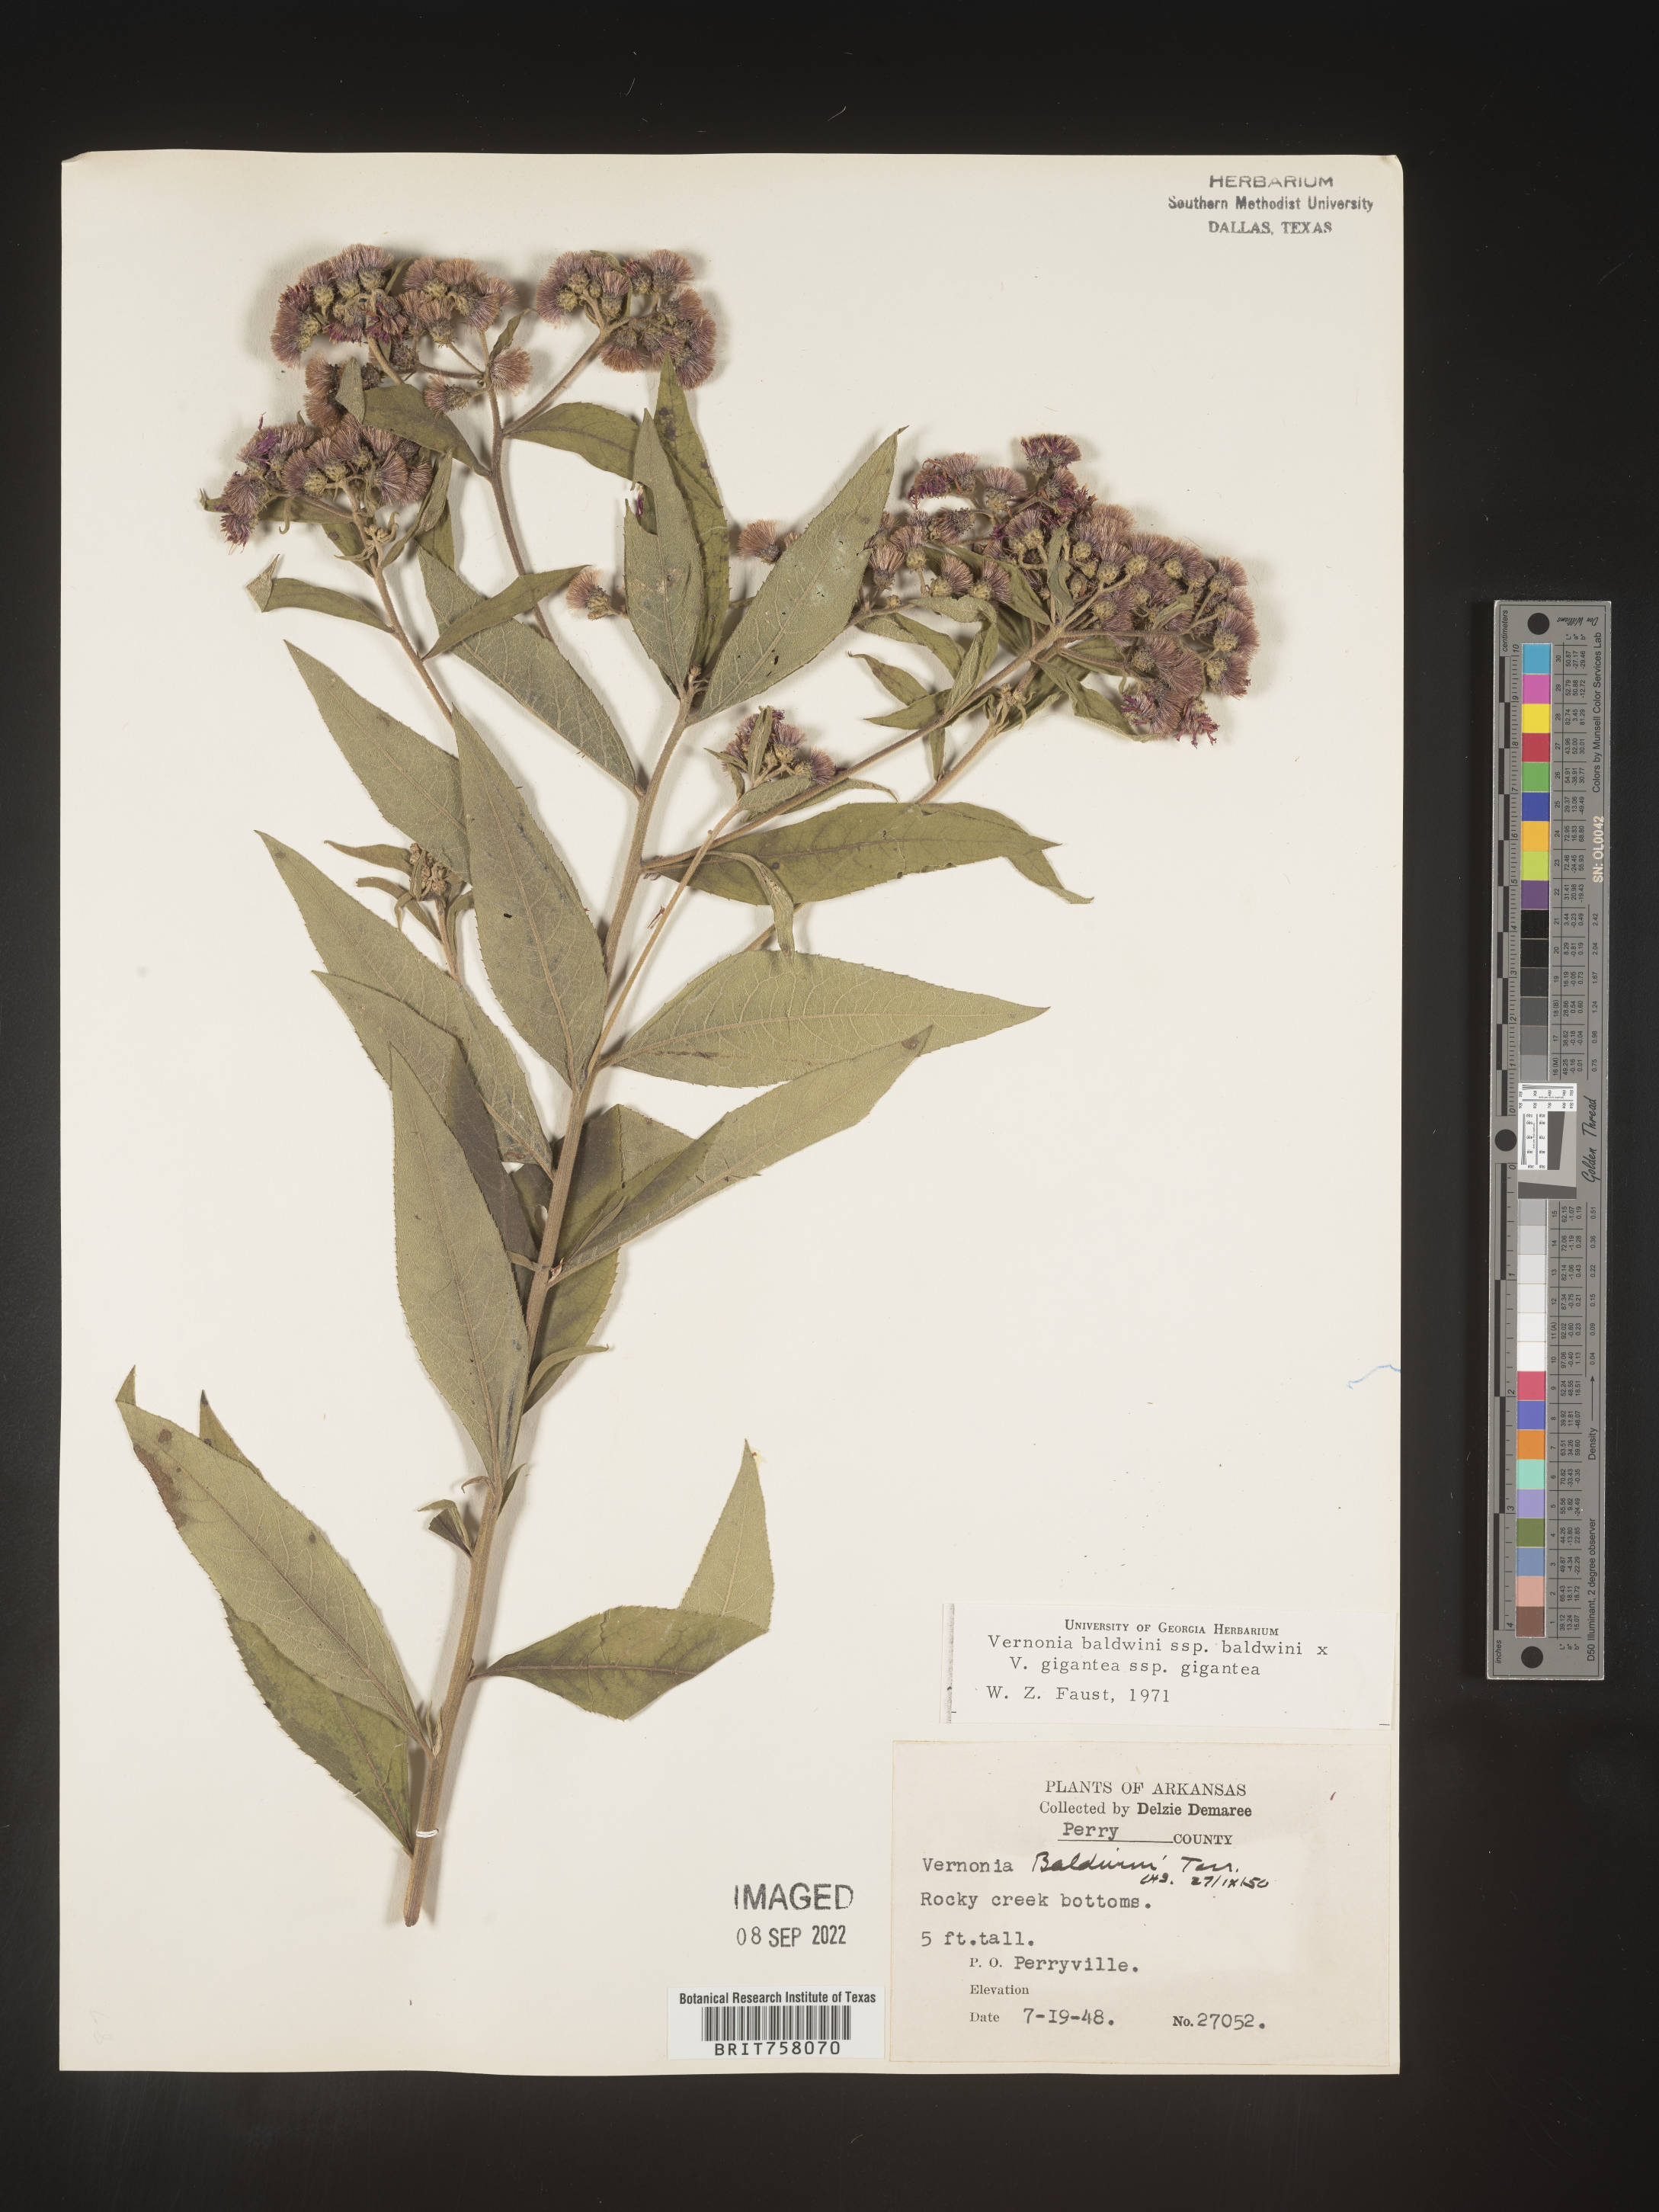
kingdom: Plantae
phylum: Tracheophyta
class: Magnoliopsida
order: Asterales
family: Asteraceae
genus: Vernonia
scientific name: Vernonia baldwinii
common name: Western ironweed
